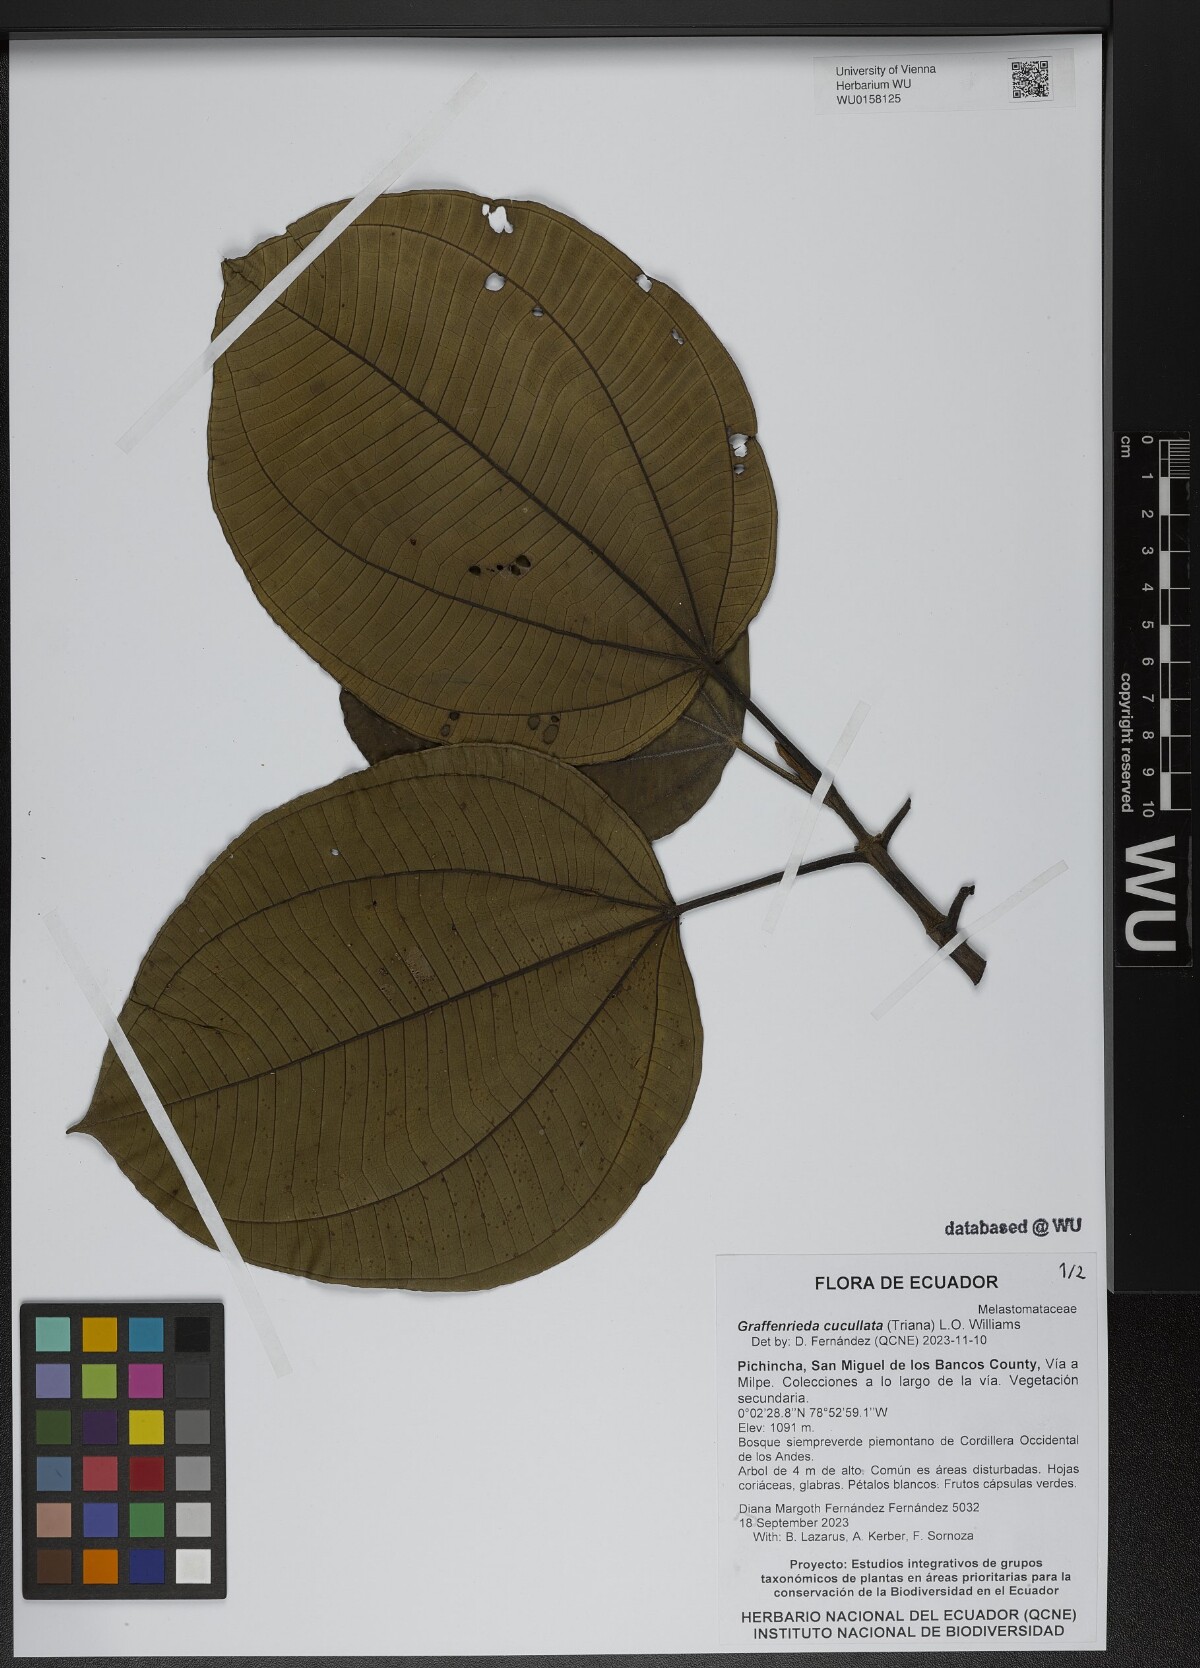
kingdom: Plantae
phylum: Tracheophyta
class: Magnoliopsida
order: Myrtales
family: Melastomataceae
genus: Graffenrieda
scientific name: Graffenrieda cucullata
